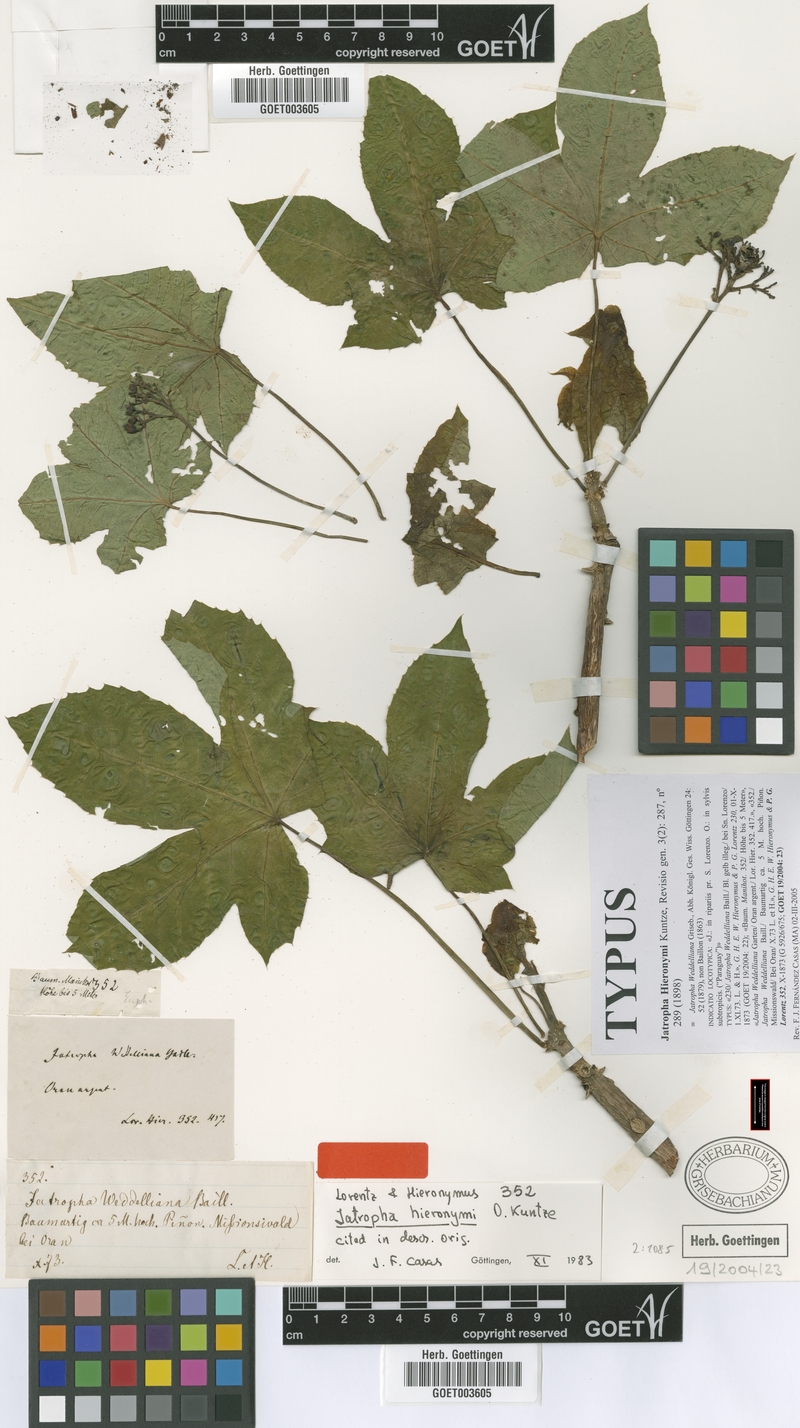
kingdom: Plantae
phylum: Tracheophyta
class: Magnoliopsida
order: Malpighiales
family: Euphorbiaceae
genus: Jatropha
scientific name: Jatropha hieronymi
